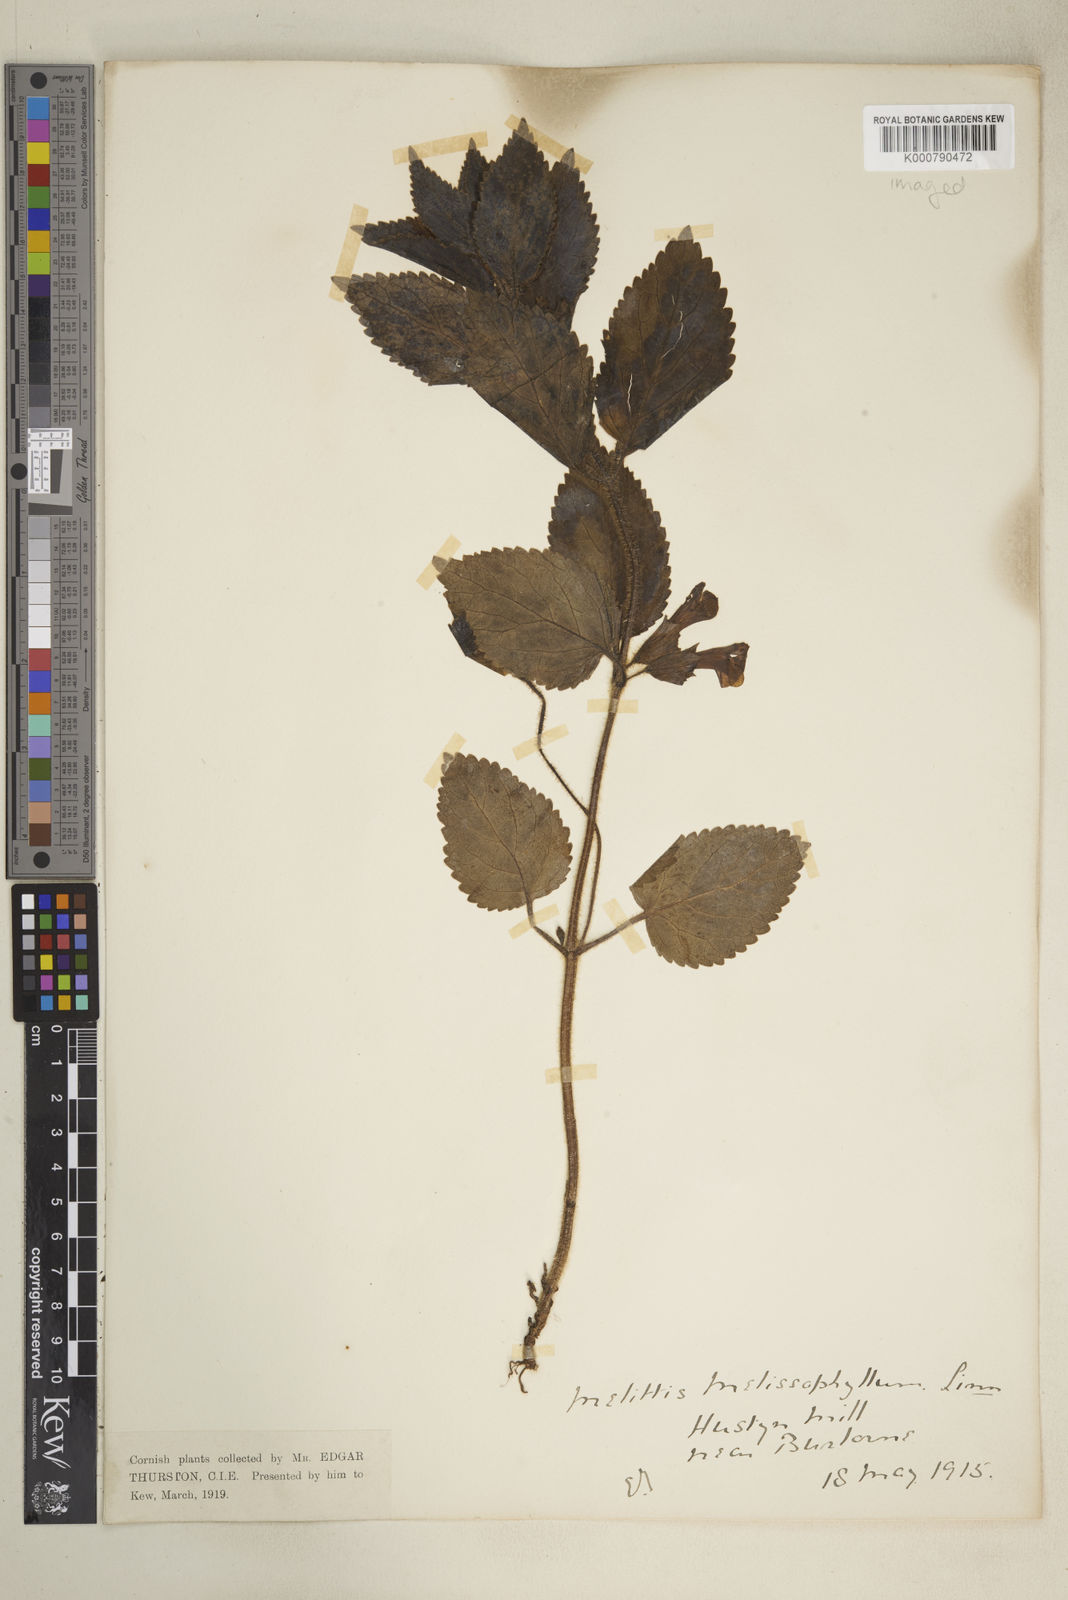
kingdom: Plantae
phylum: Tracheophyta
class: Magnoliopsida
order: Lamiales
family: Lamiaceae
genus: Melittis
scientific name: Melittis melissophyllum
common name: Bastard balm
